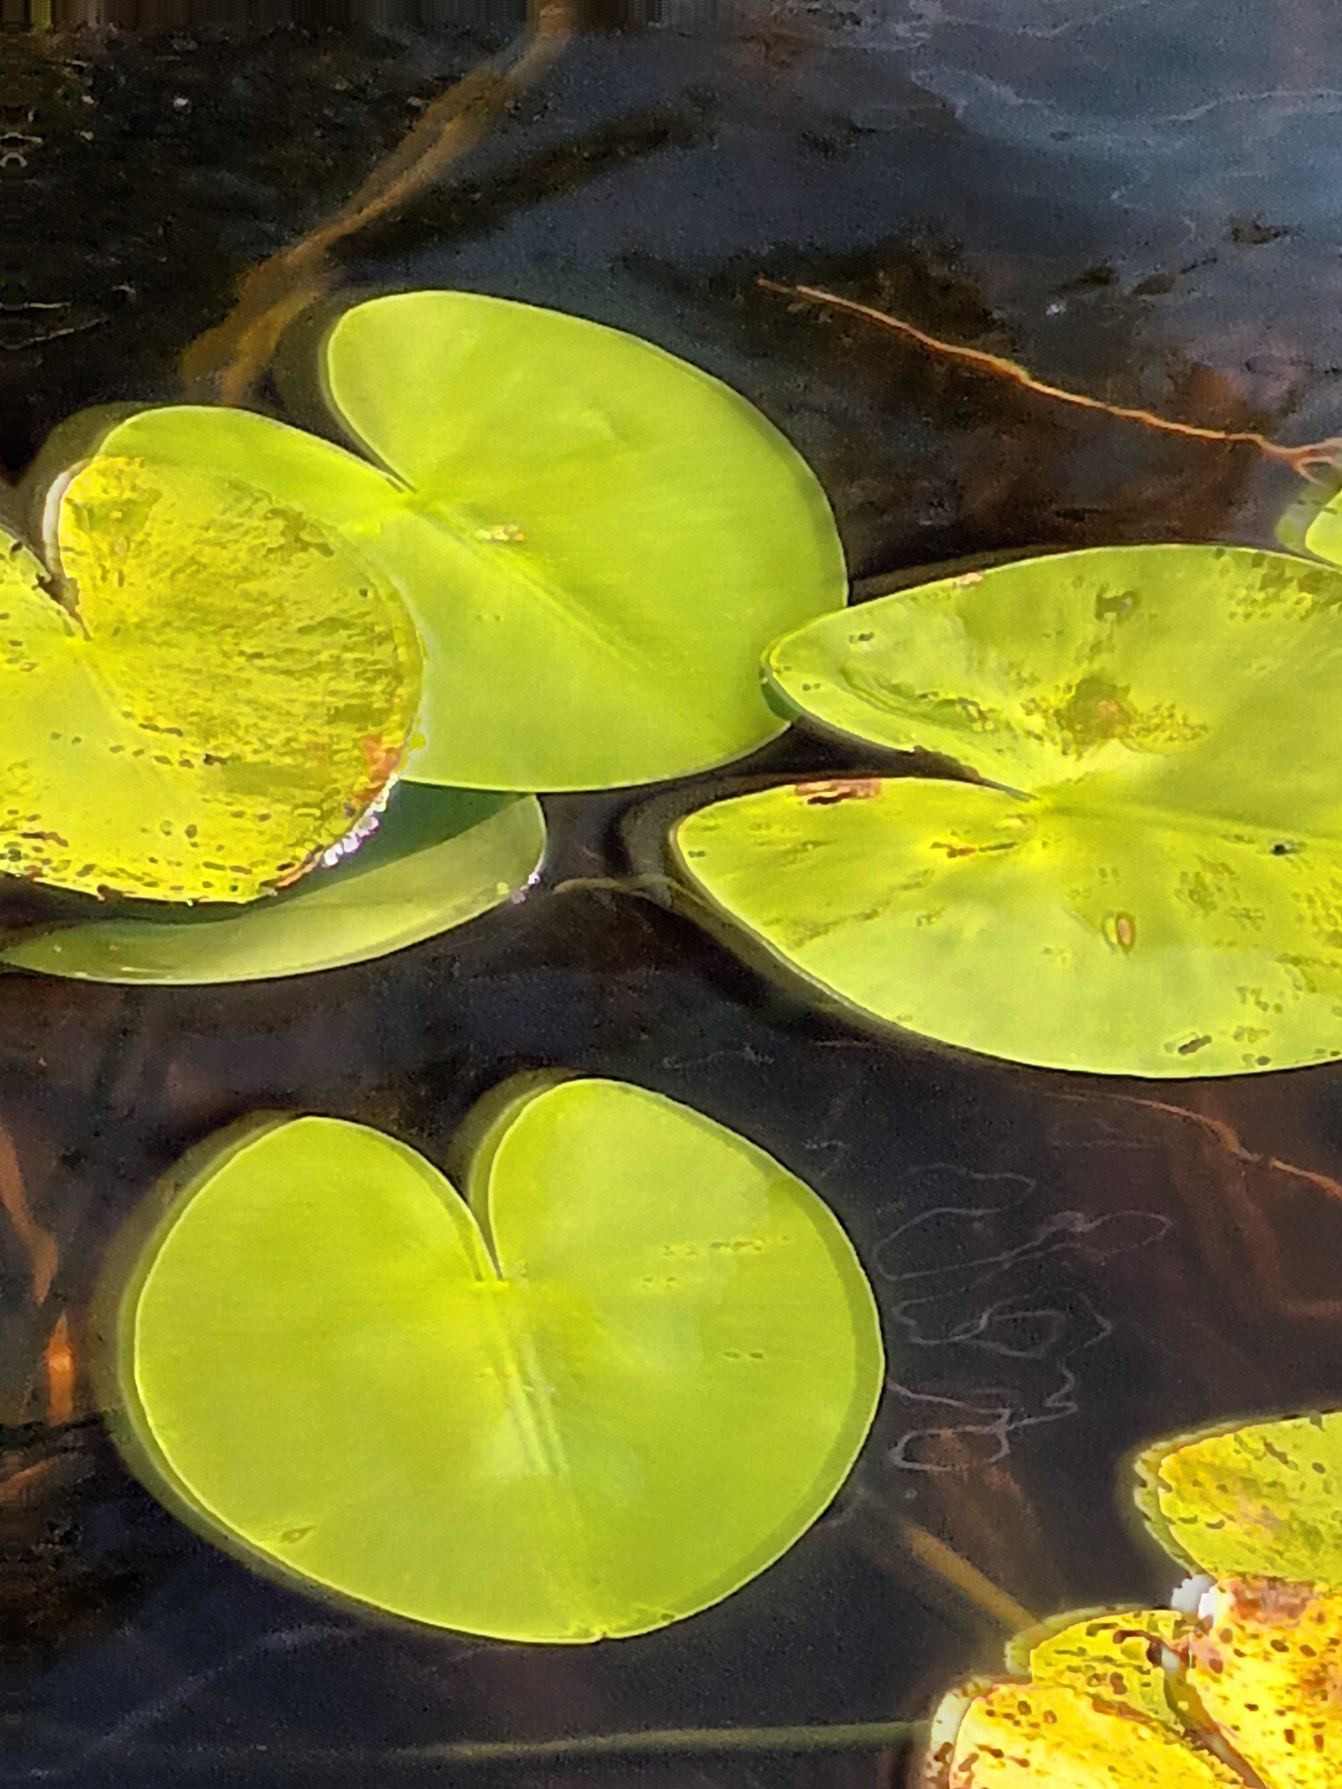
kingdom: Plantae
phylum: Tracheophyta
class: Magnoliopsida
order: Nymphaeales
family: Nymphaeaceae
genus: Nuphar
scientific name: Nuphar lutea
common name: Gul åkande
